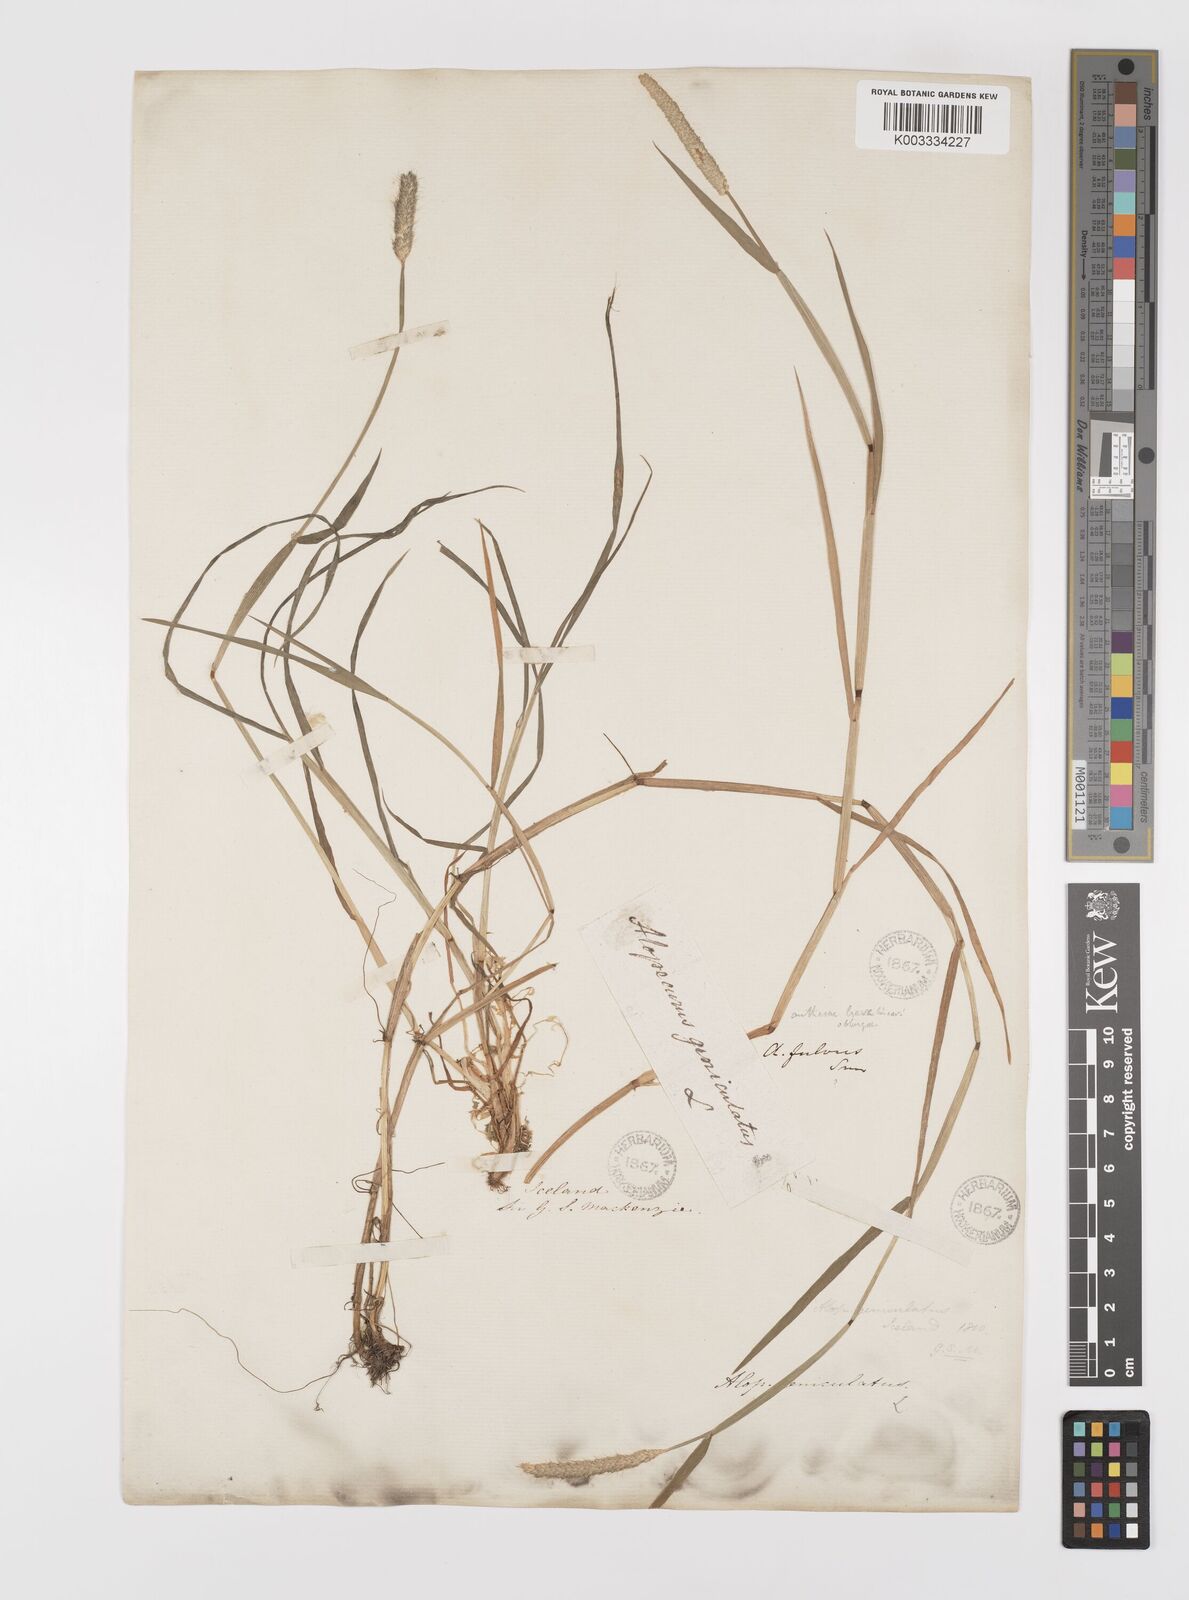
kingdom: Plantae
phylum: Tracheophyta
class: Liliopsida
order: Poales
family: Poaceae
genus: Alopecurus
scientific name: Alopecurus geniculatus
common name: Water foxtail
